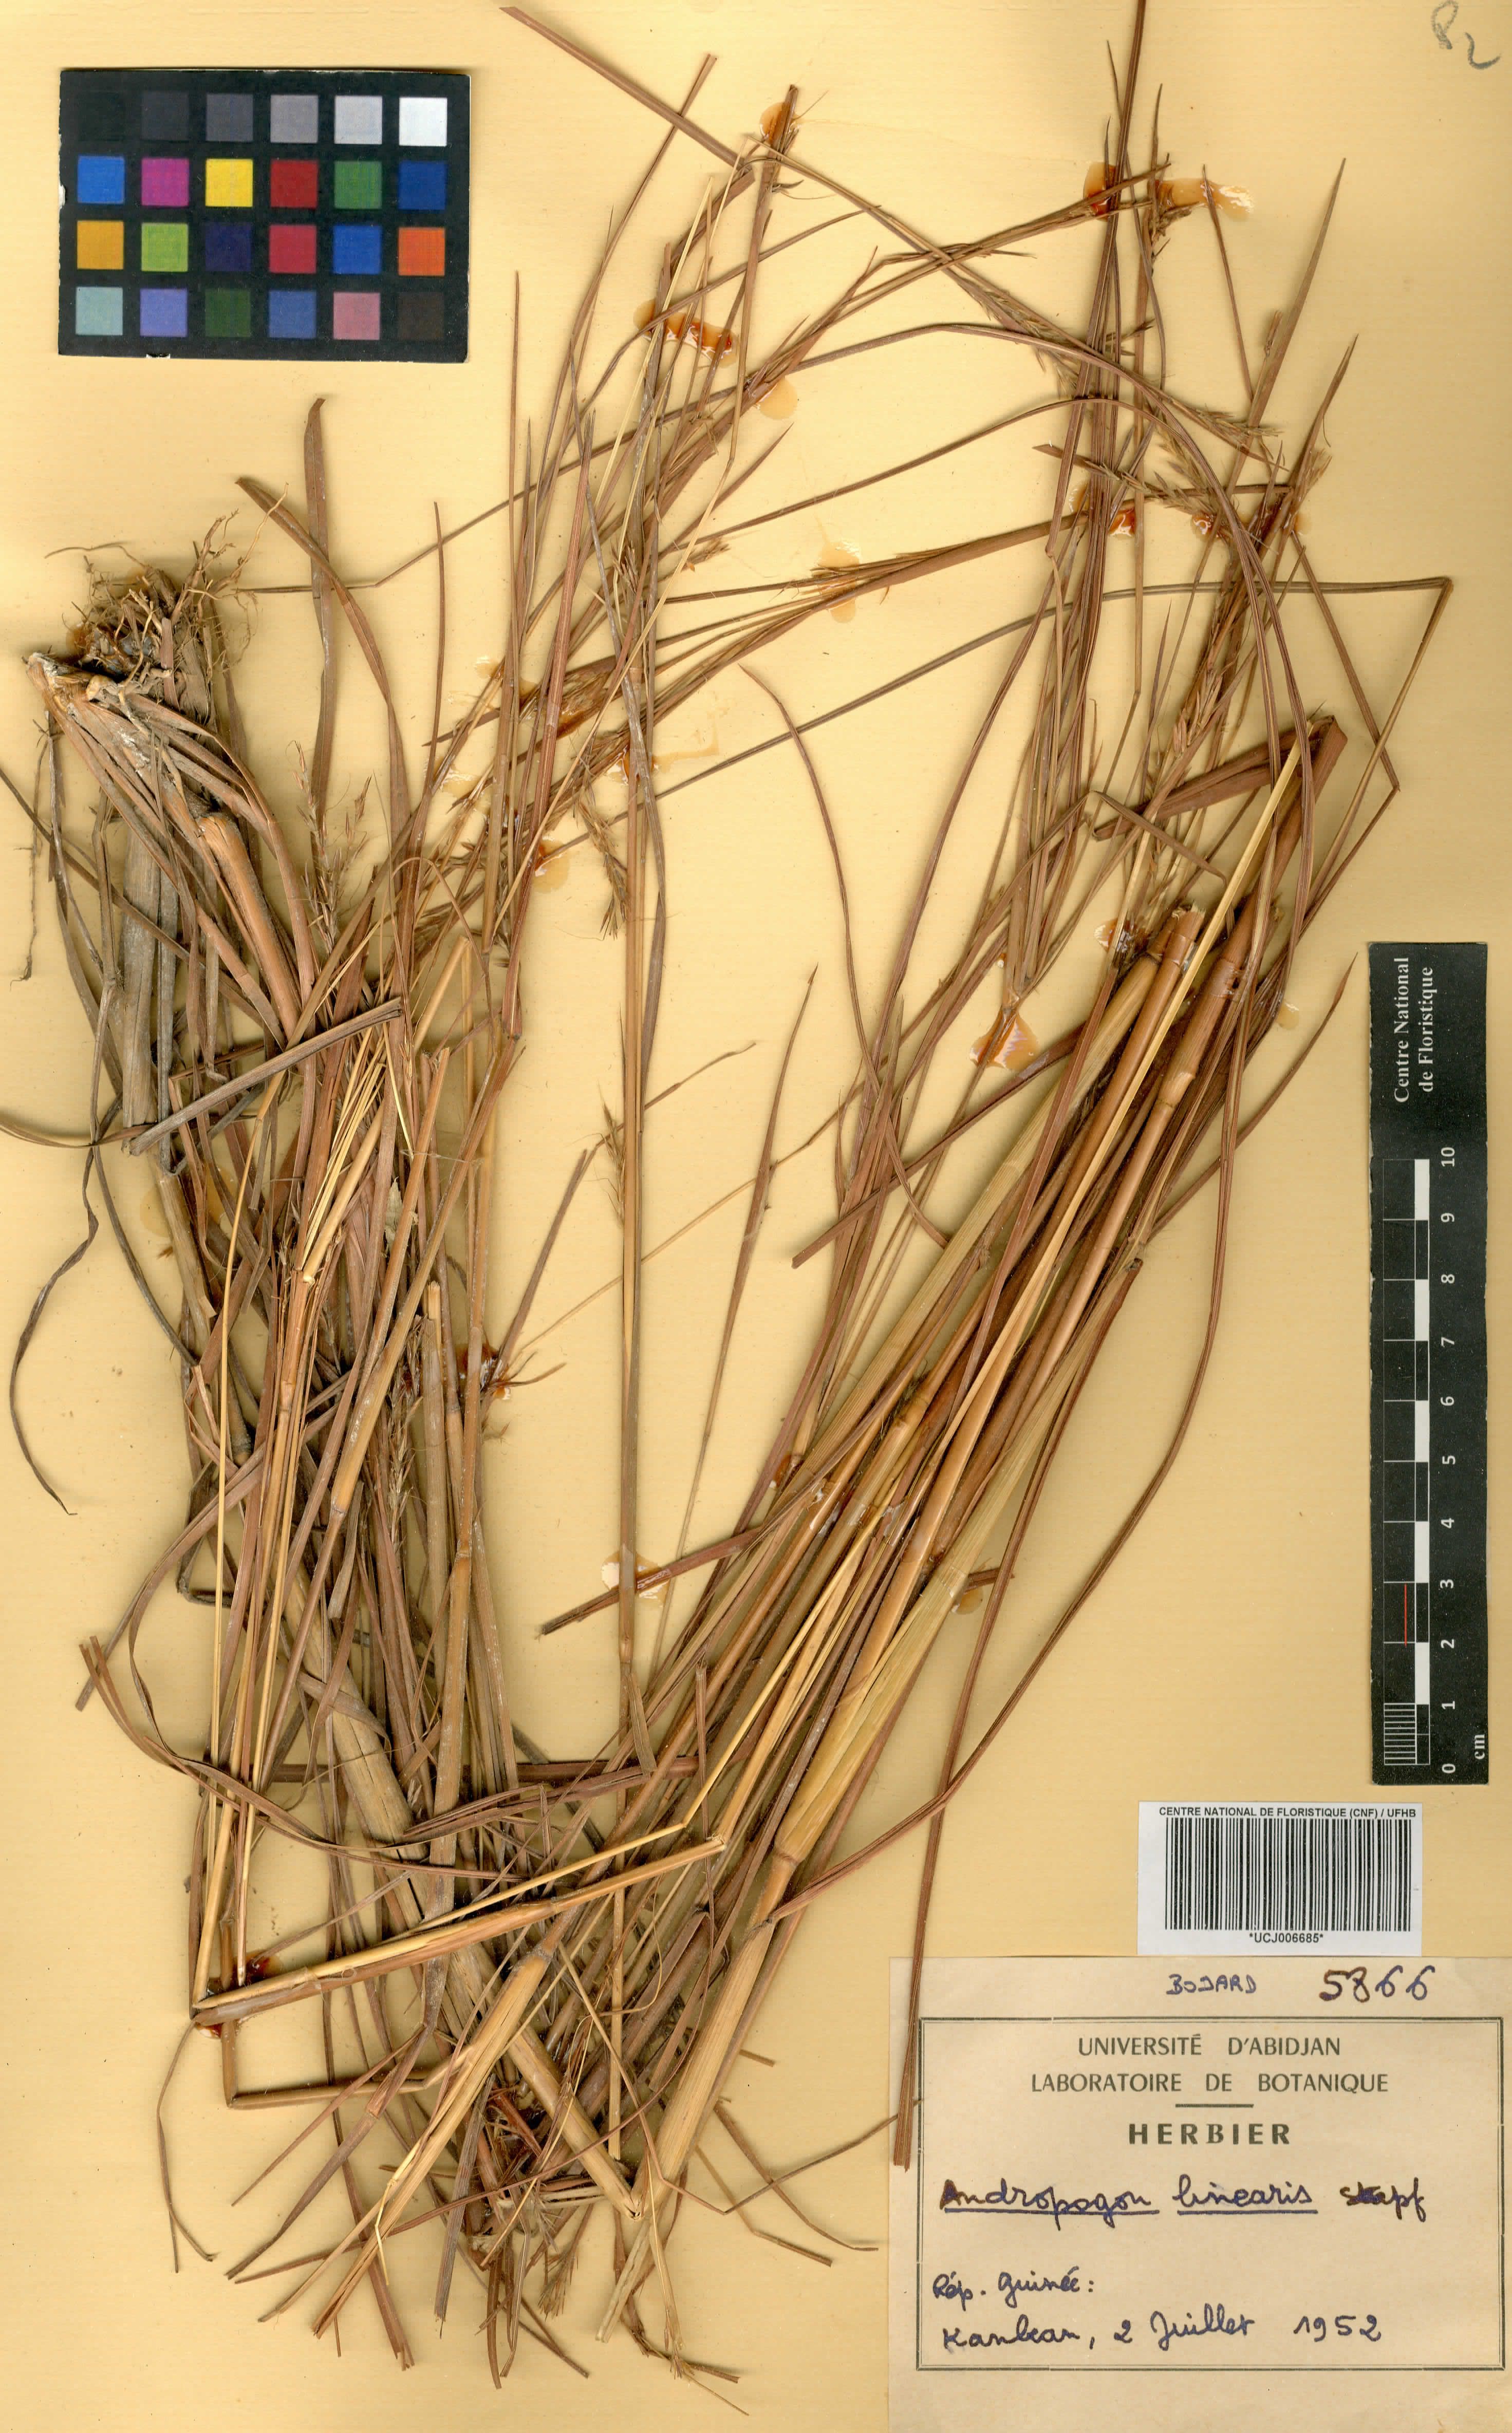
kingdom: Plantae
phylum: Tracheophyta
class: Liliopsida
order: Poales
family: Poaceae
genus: Andropogon
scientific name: Andropogon africanus
